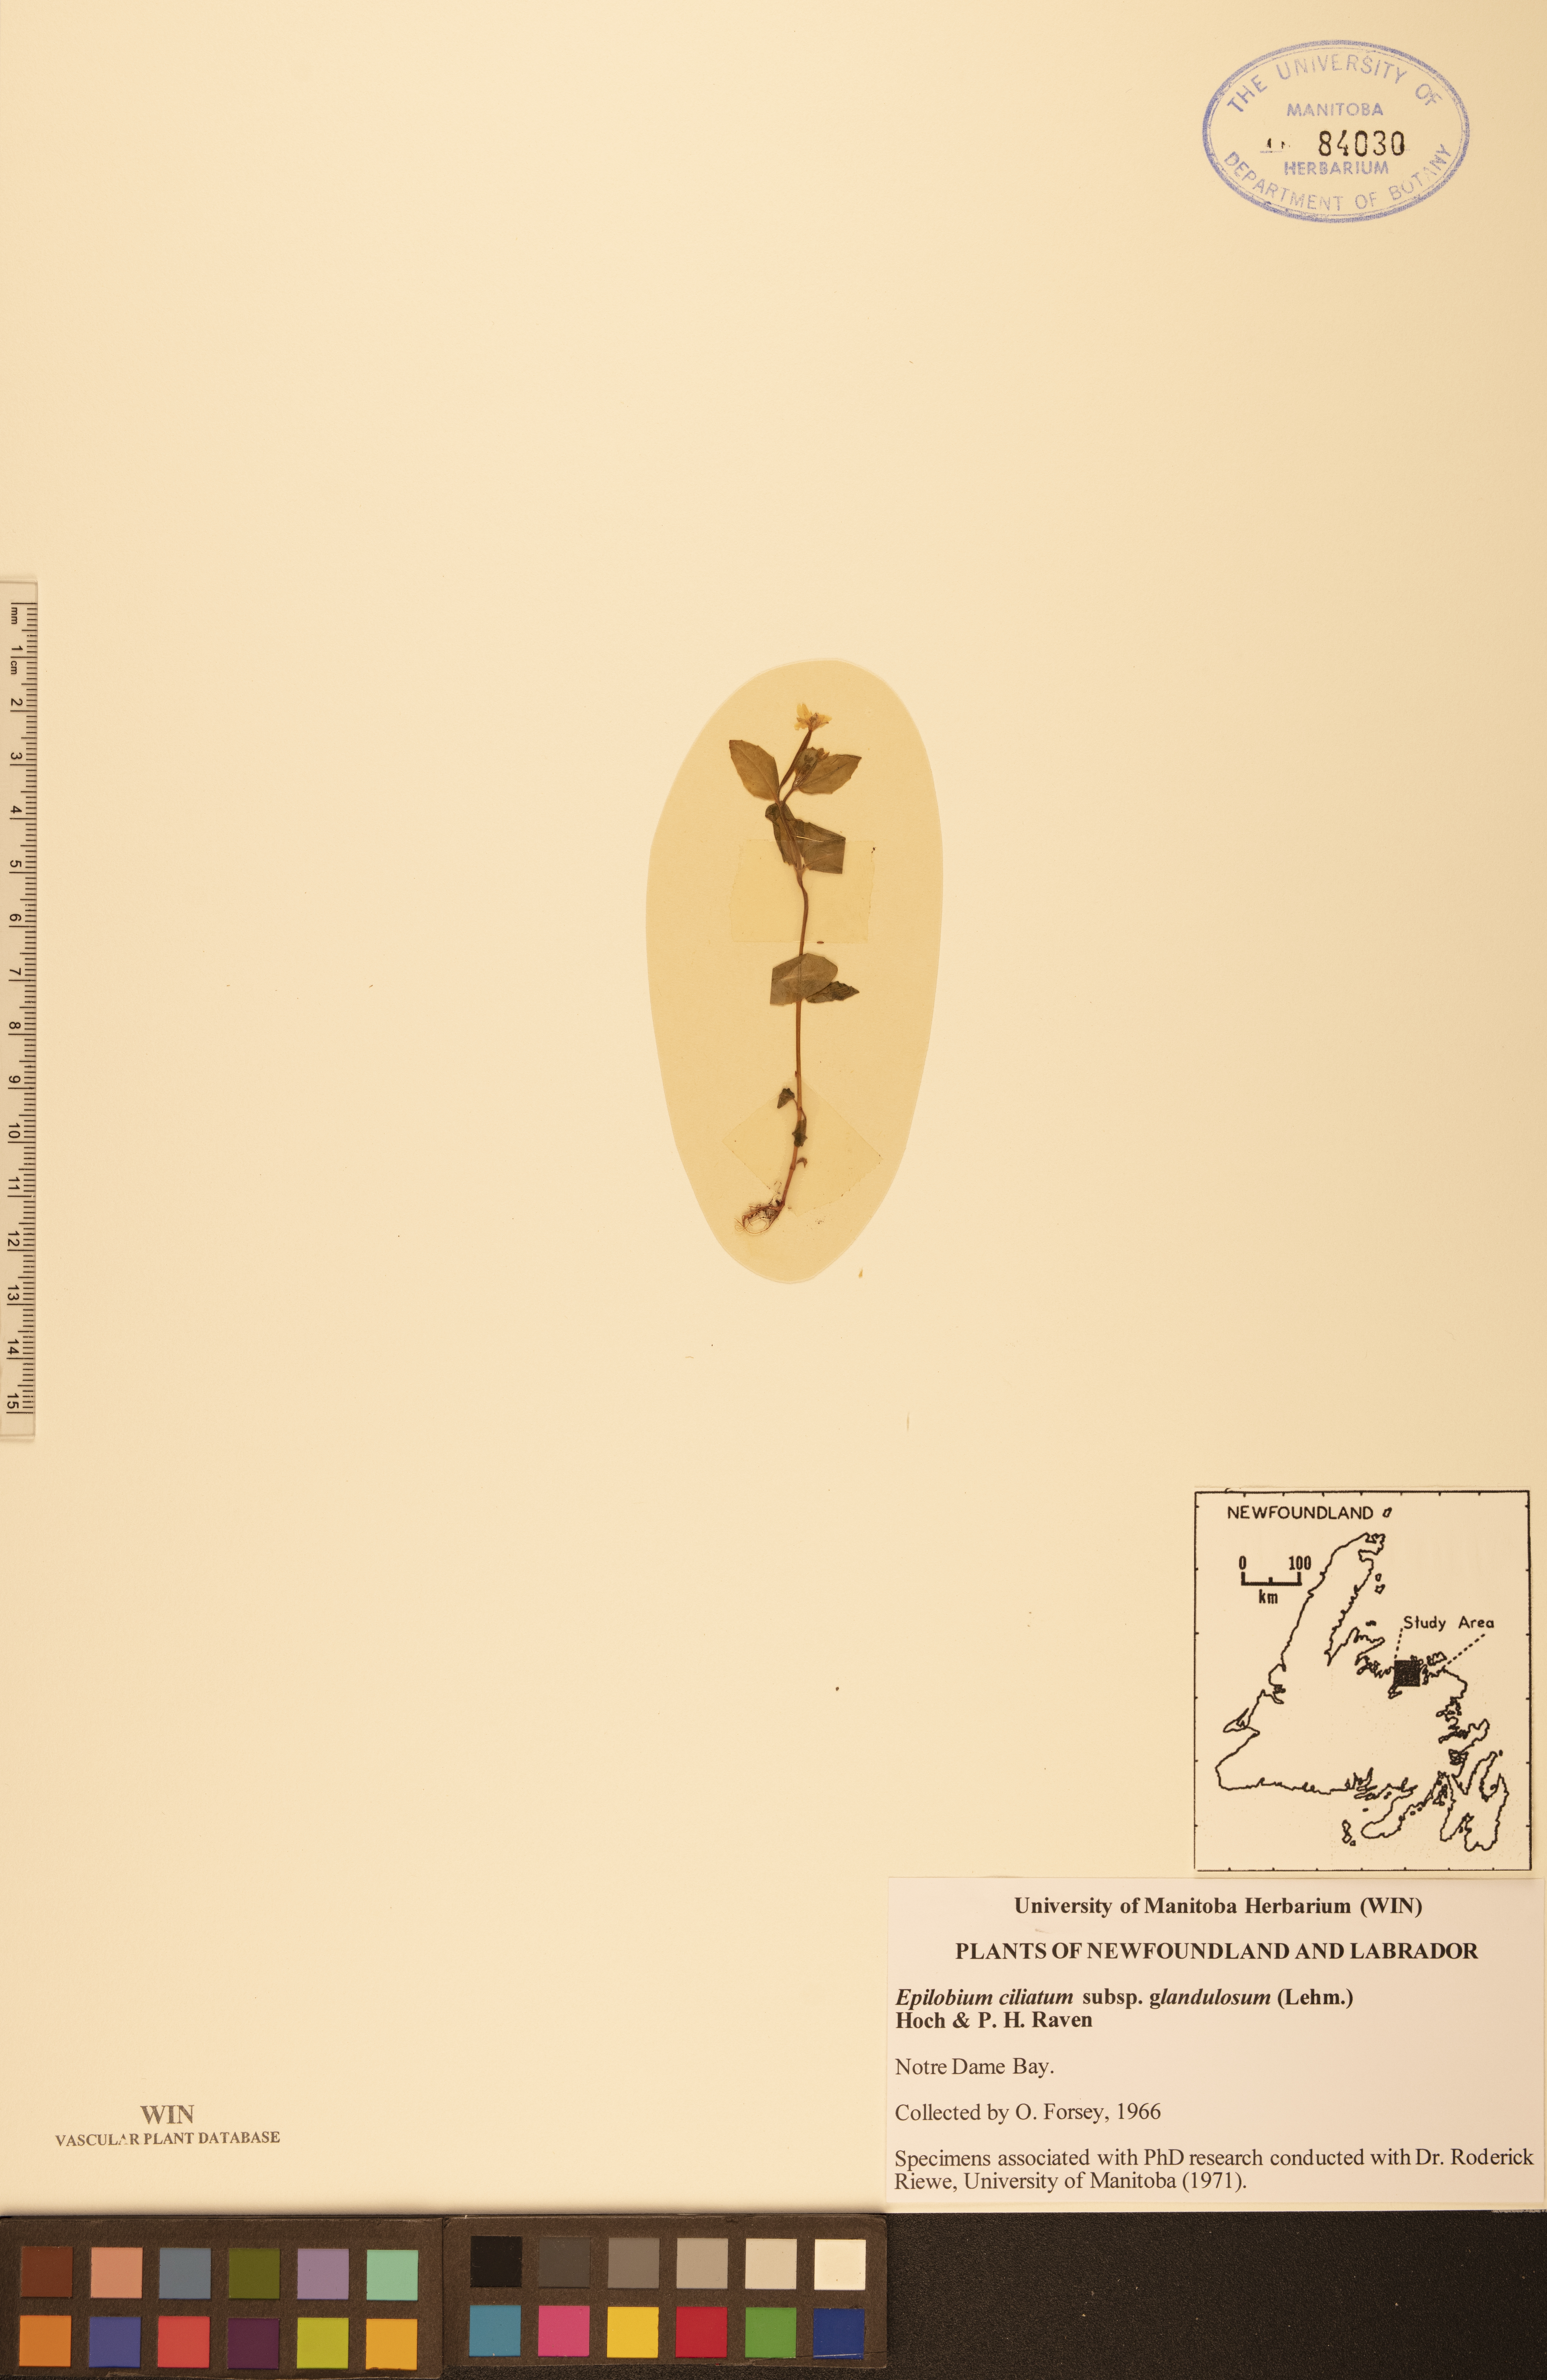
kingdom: Plantae
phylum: Tracheophyta
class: Magnoliopsida
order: Myrtales
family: Onagraceae
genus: Epilobium
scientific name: Epilobium ciliatum
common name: American willowherb
